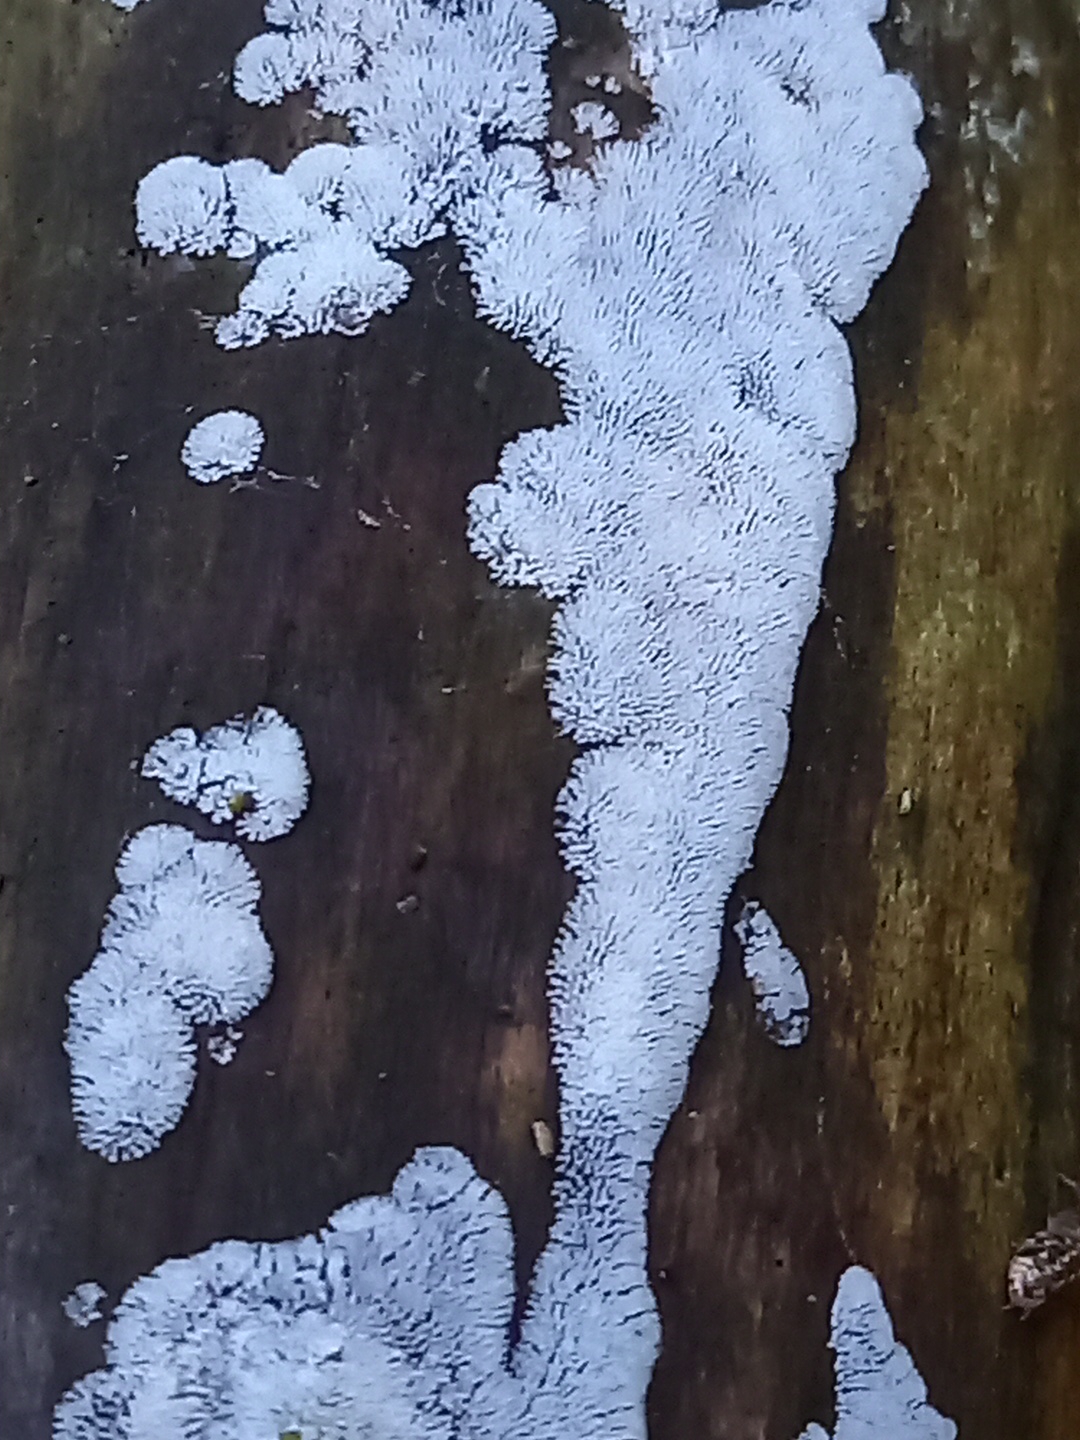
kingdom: Protozoa
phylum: Mycetozoa
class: Protosteliomycetes
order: Ceratiomyxales
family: Ceratiomyxaceae
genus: Ceratiomyxa
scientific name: Ceratiomyxa fruticulosa
